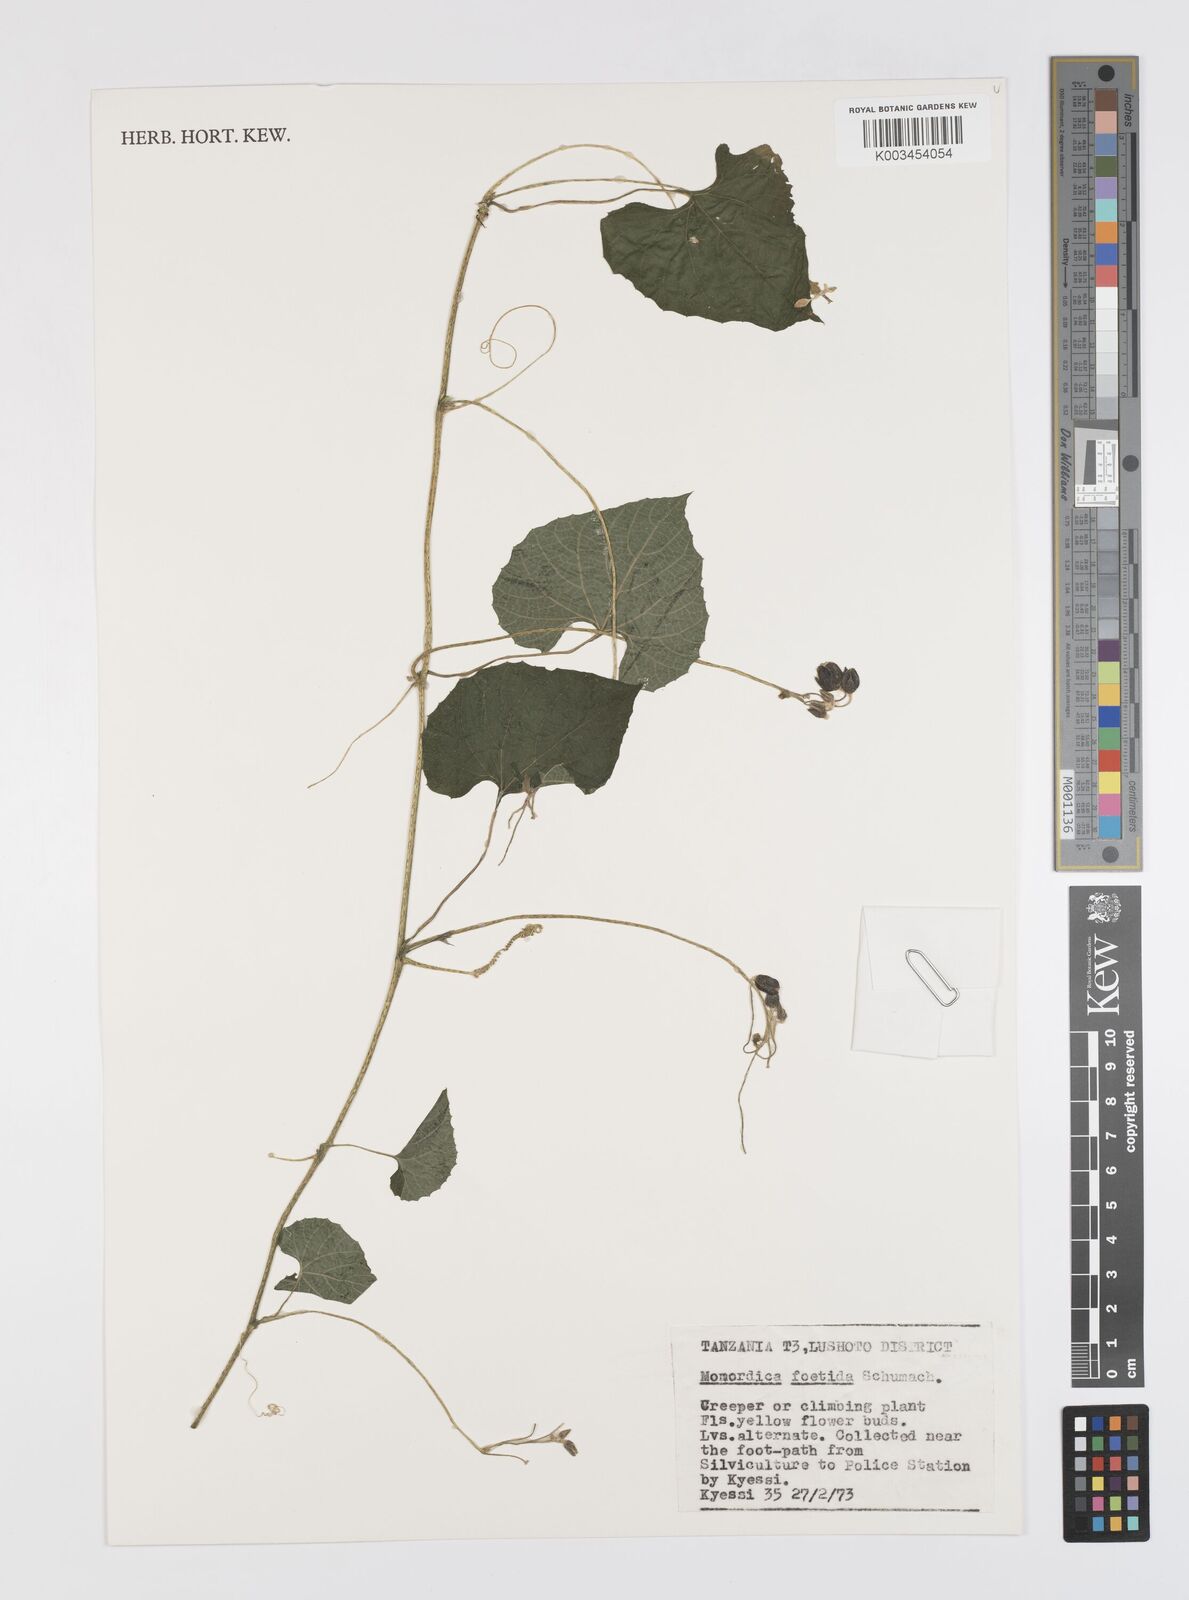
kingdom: Plantae
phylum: Tracheophyta
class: Magnoliopsida
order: Cucurbitales
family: Cucurbitaceae
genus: Momordica
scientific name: Momordica foetida
